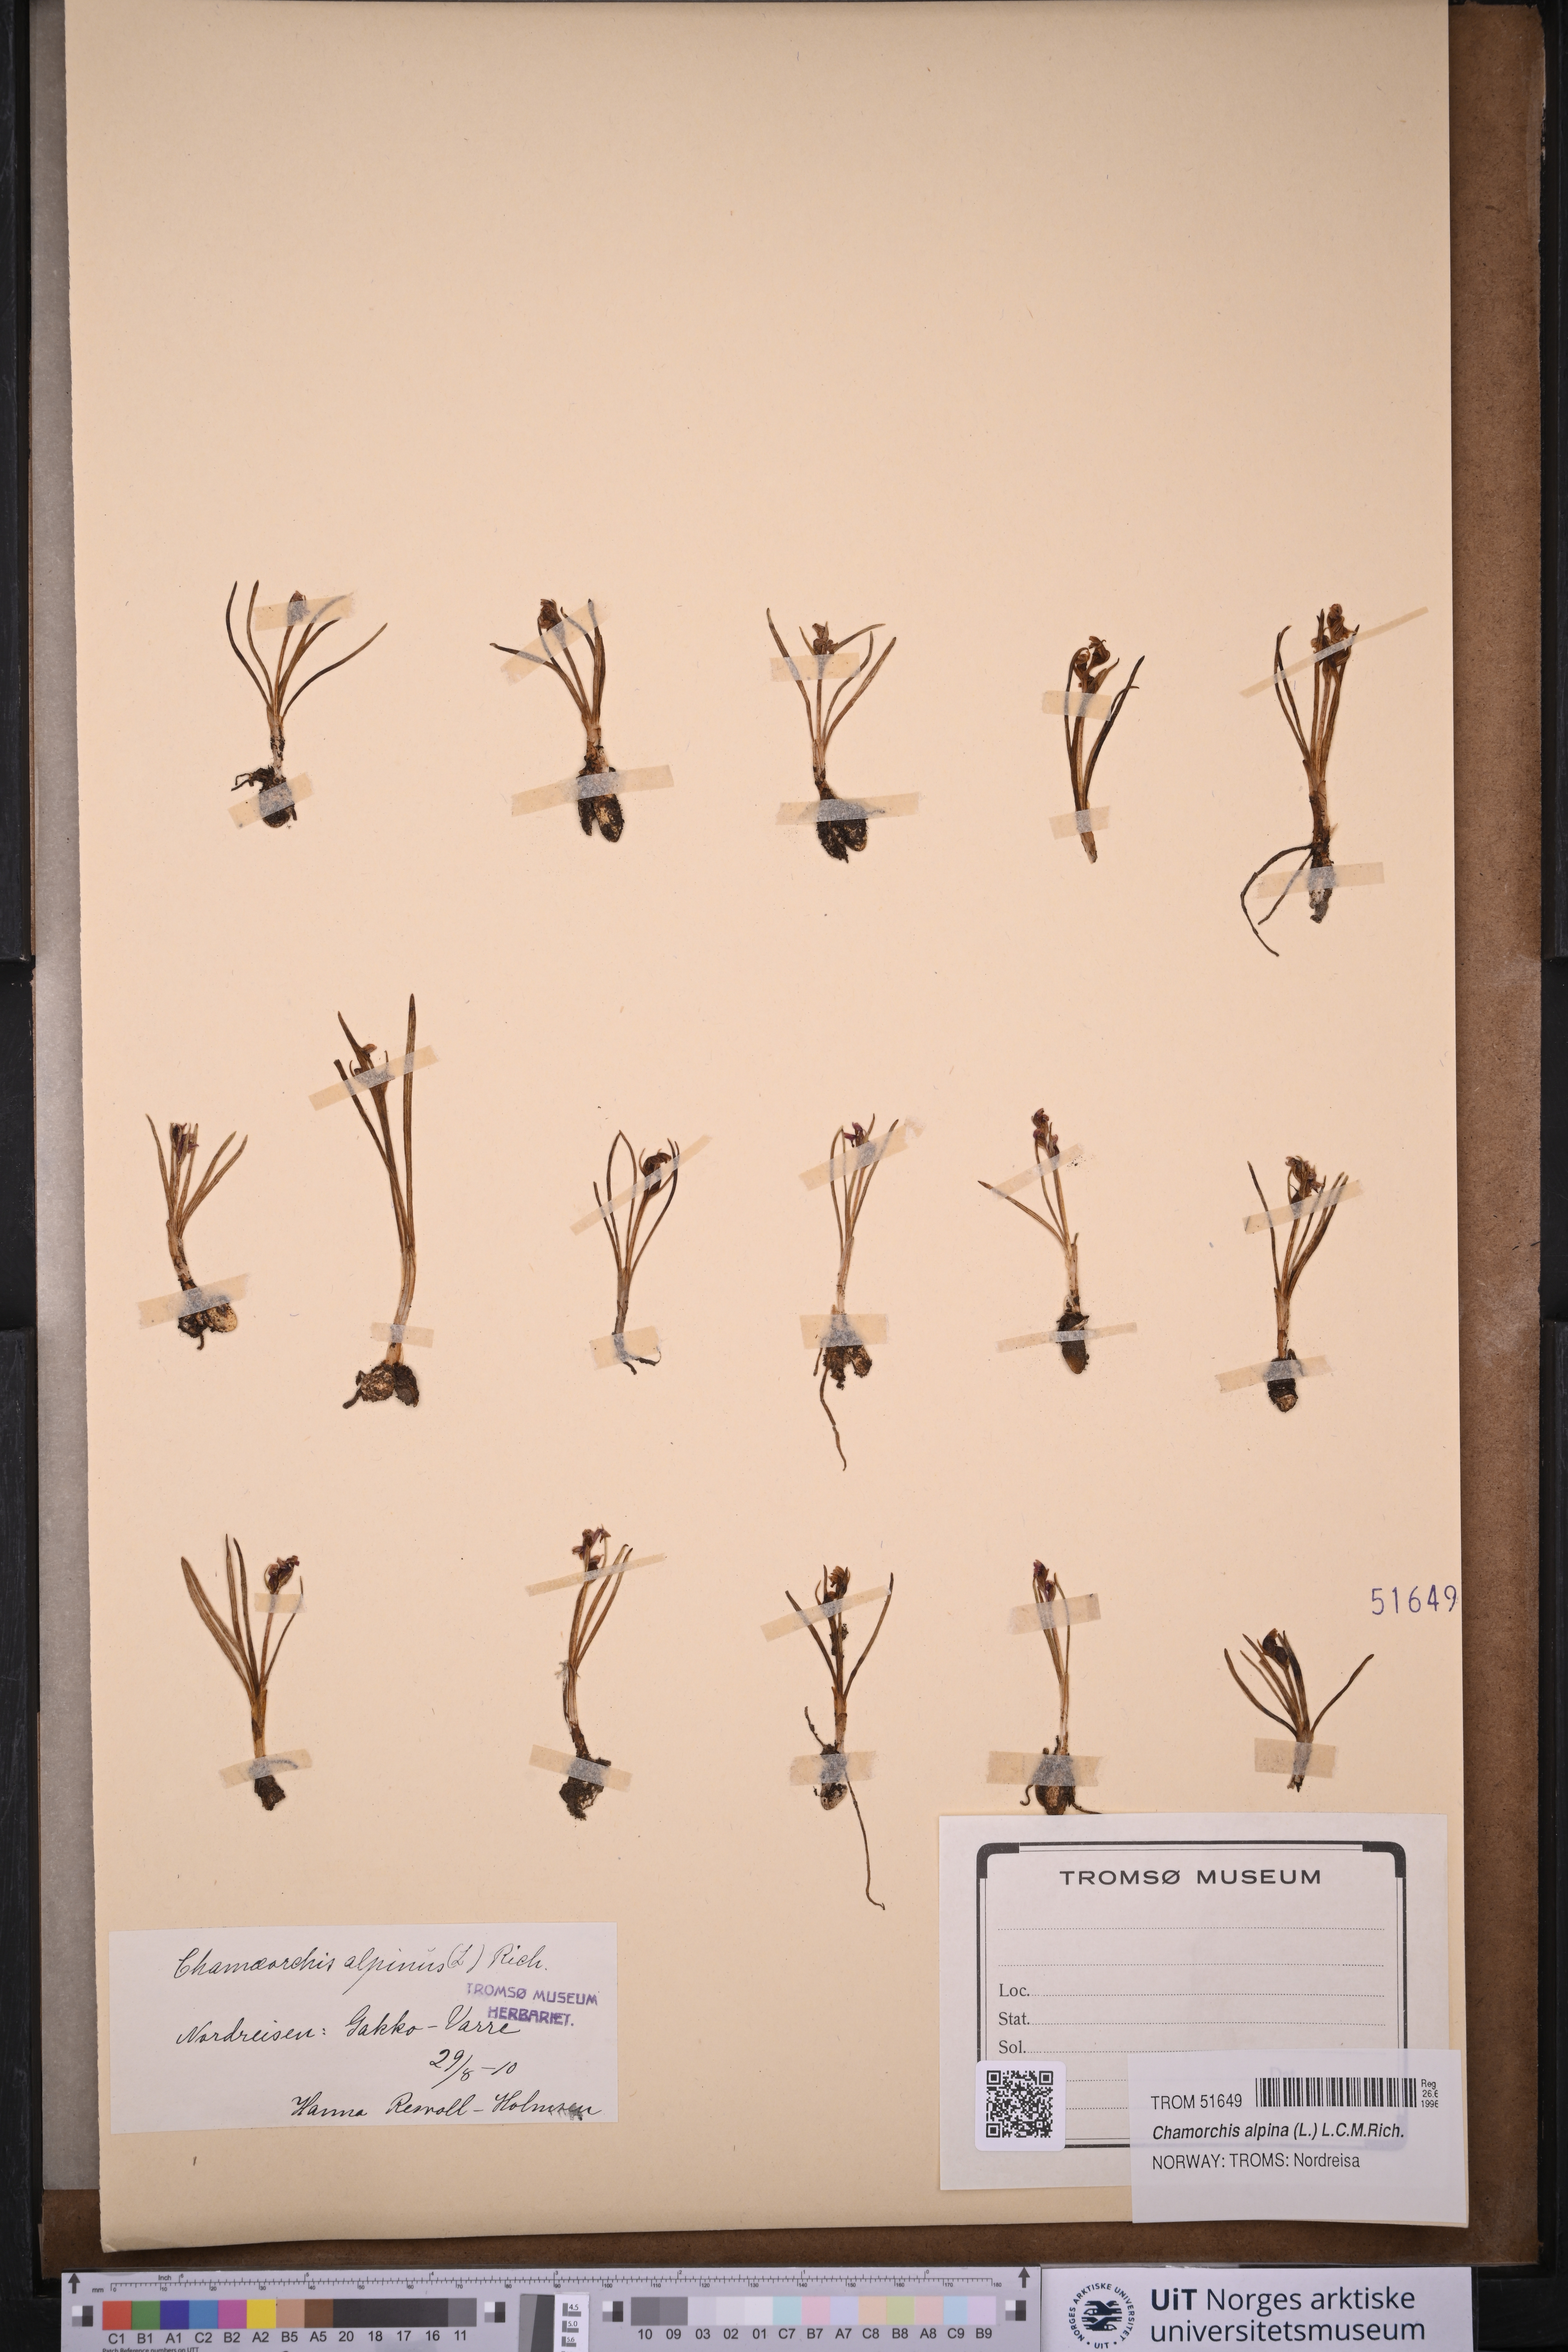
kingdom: Plantae
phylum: Tracheophyta
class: Liliopsida
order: Asparagales
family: Orchidaceae
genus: Chamorchis
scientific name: Chamorchis alpina
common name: Alpine chamorchis
